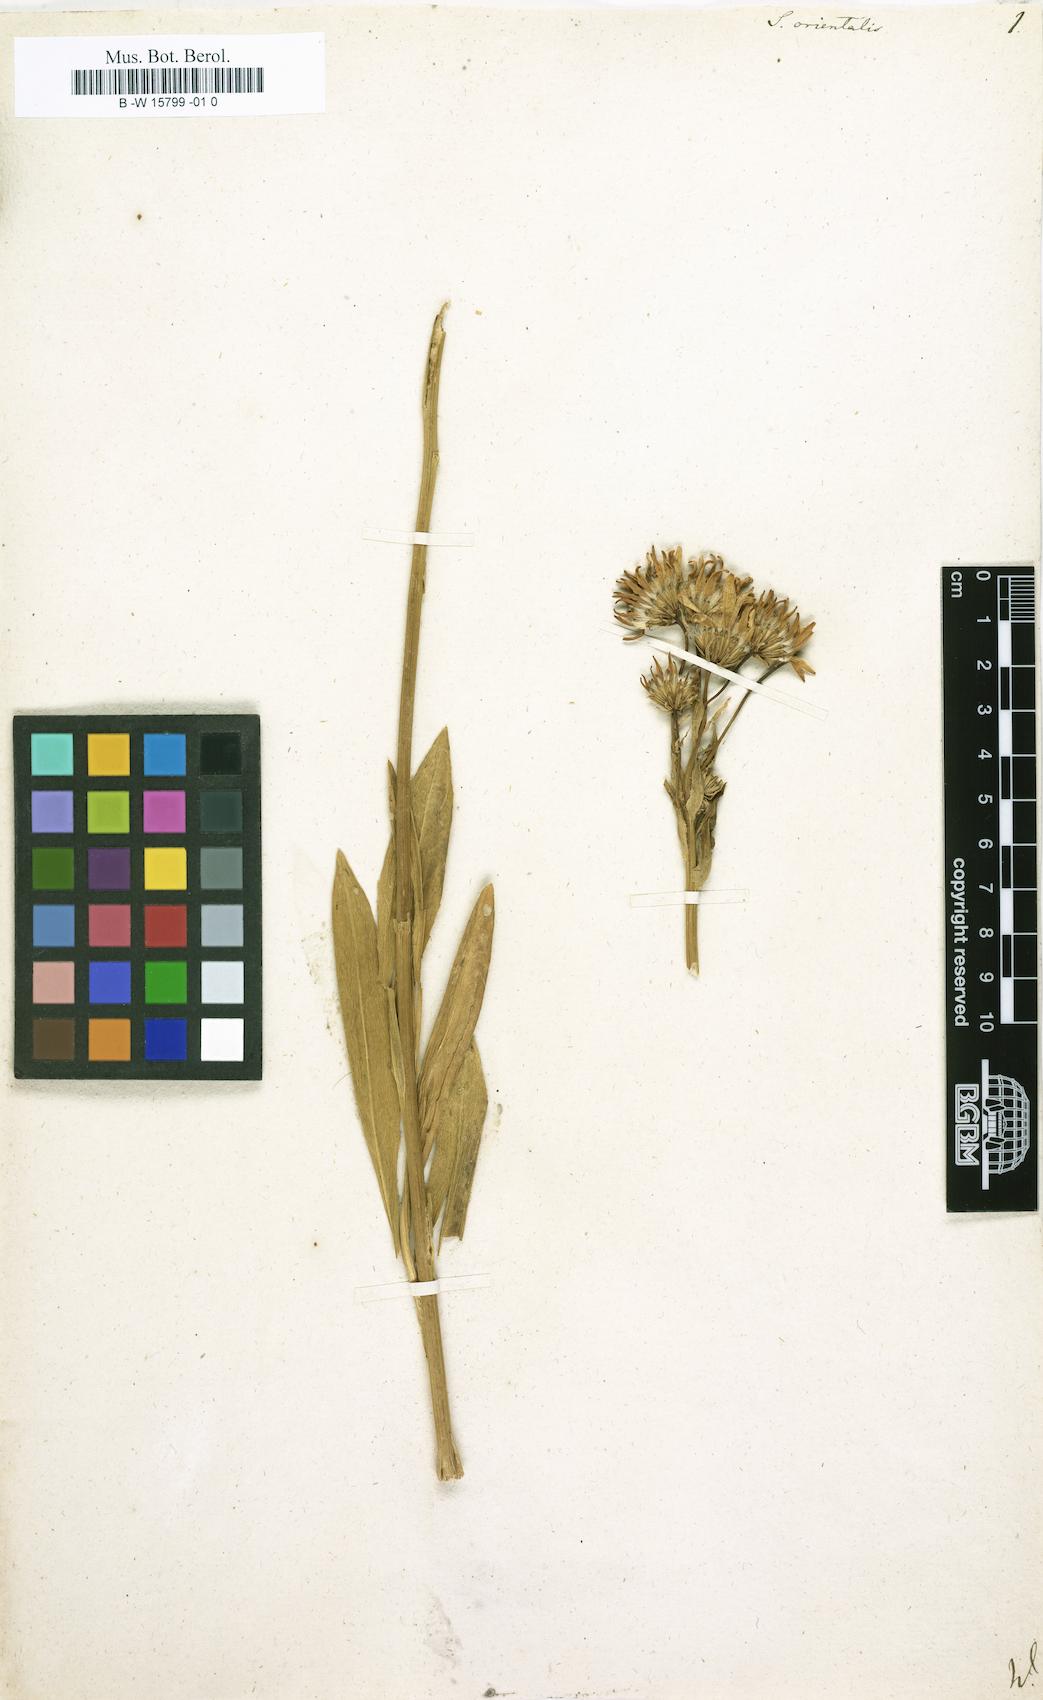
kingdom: Plantae
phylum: Tracheophyta
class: Magnoliopsida
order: Asterales
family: Asteraceae
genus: Senecio
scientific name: Senecio orientalis
